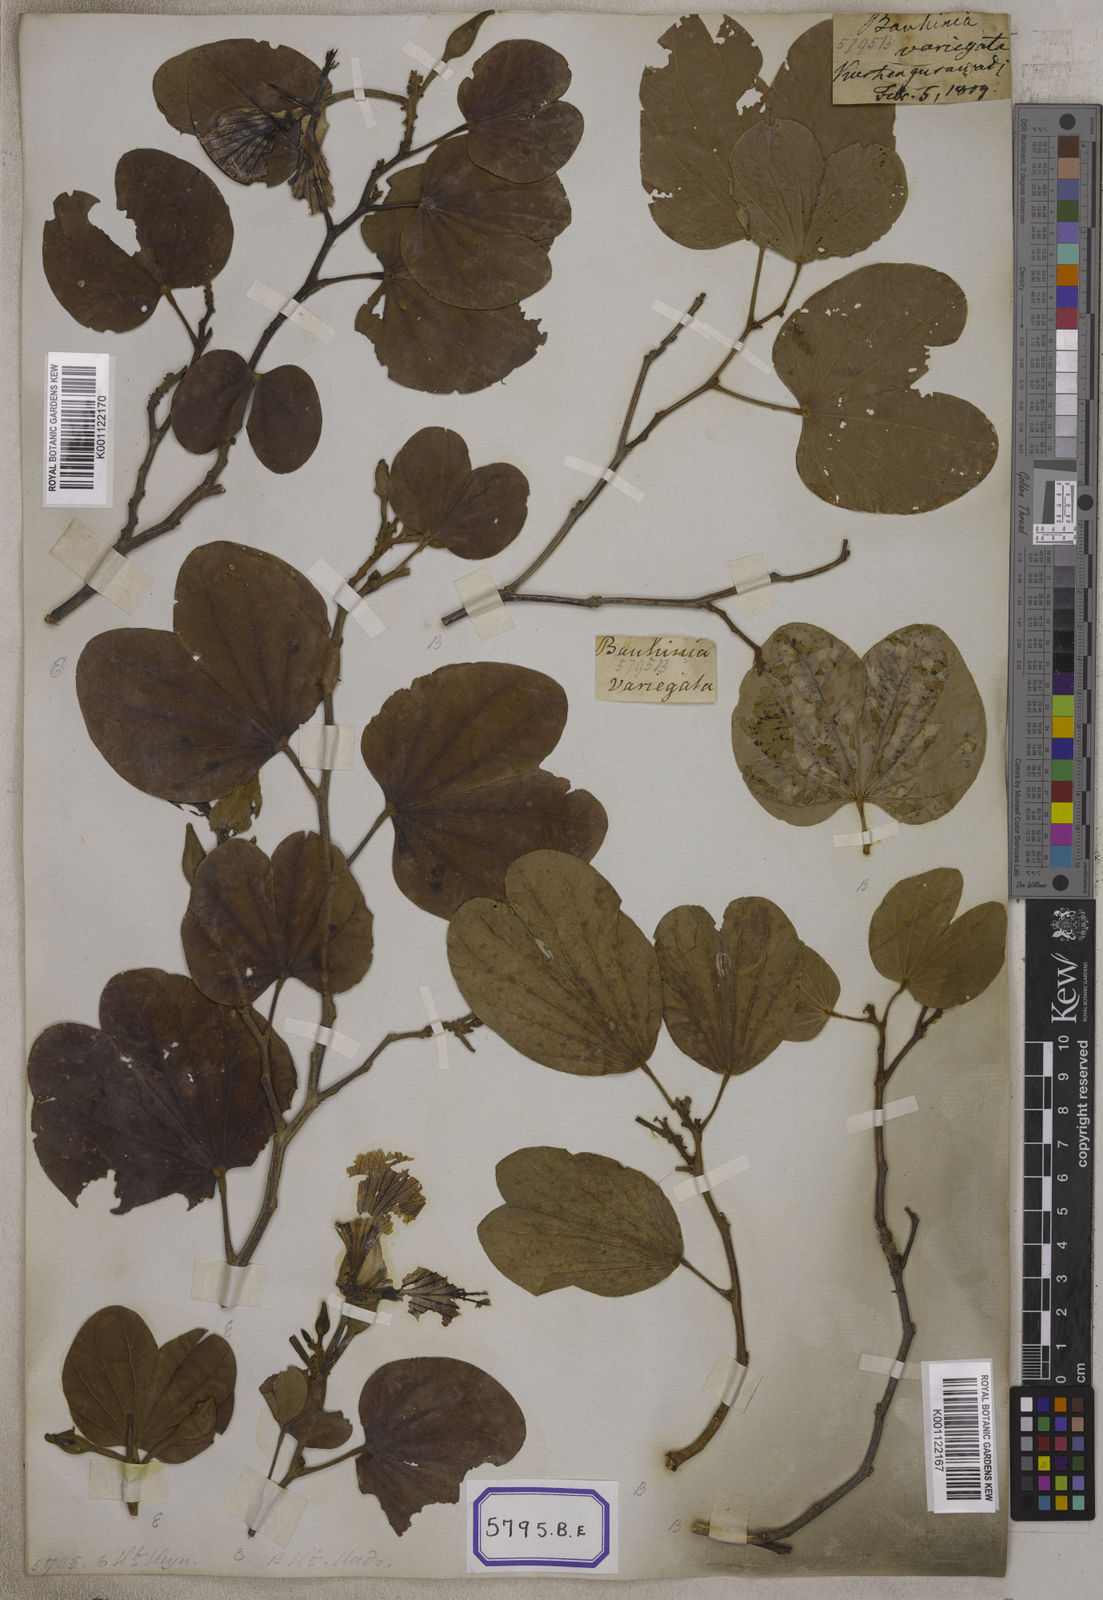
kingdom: Plantae
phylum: Tracheophyta
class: Magnoliopsida
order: Fabales
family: Fabaceae
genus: Bauhinia
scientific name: Bauhinia variegata
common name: Mountain ebony
